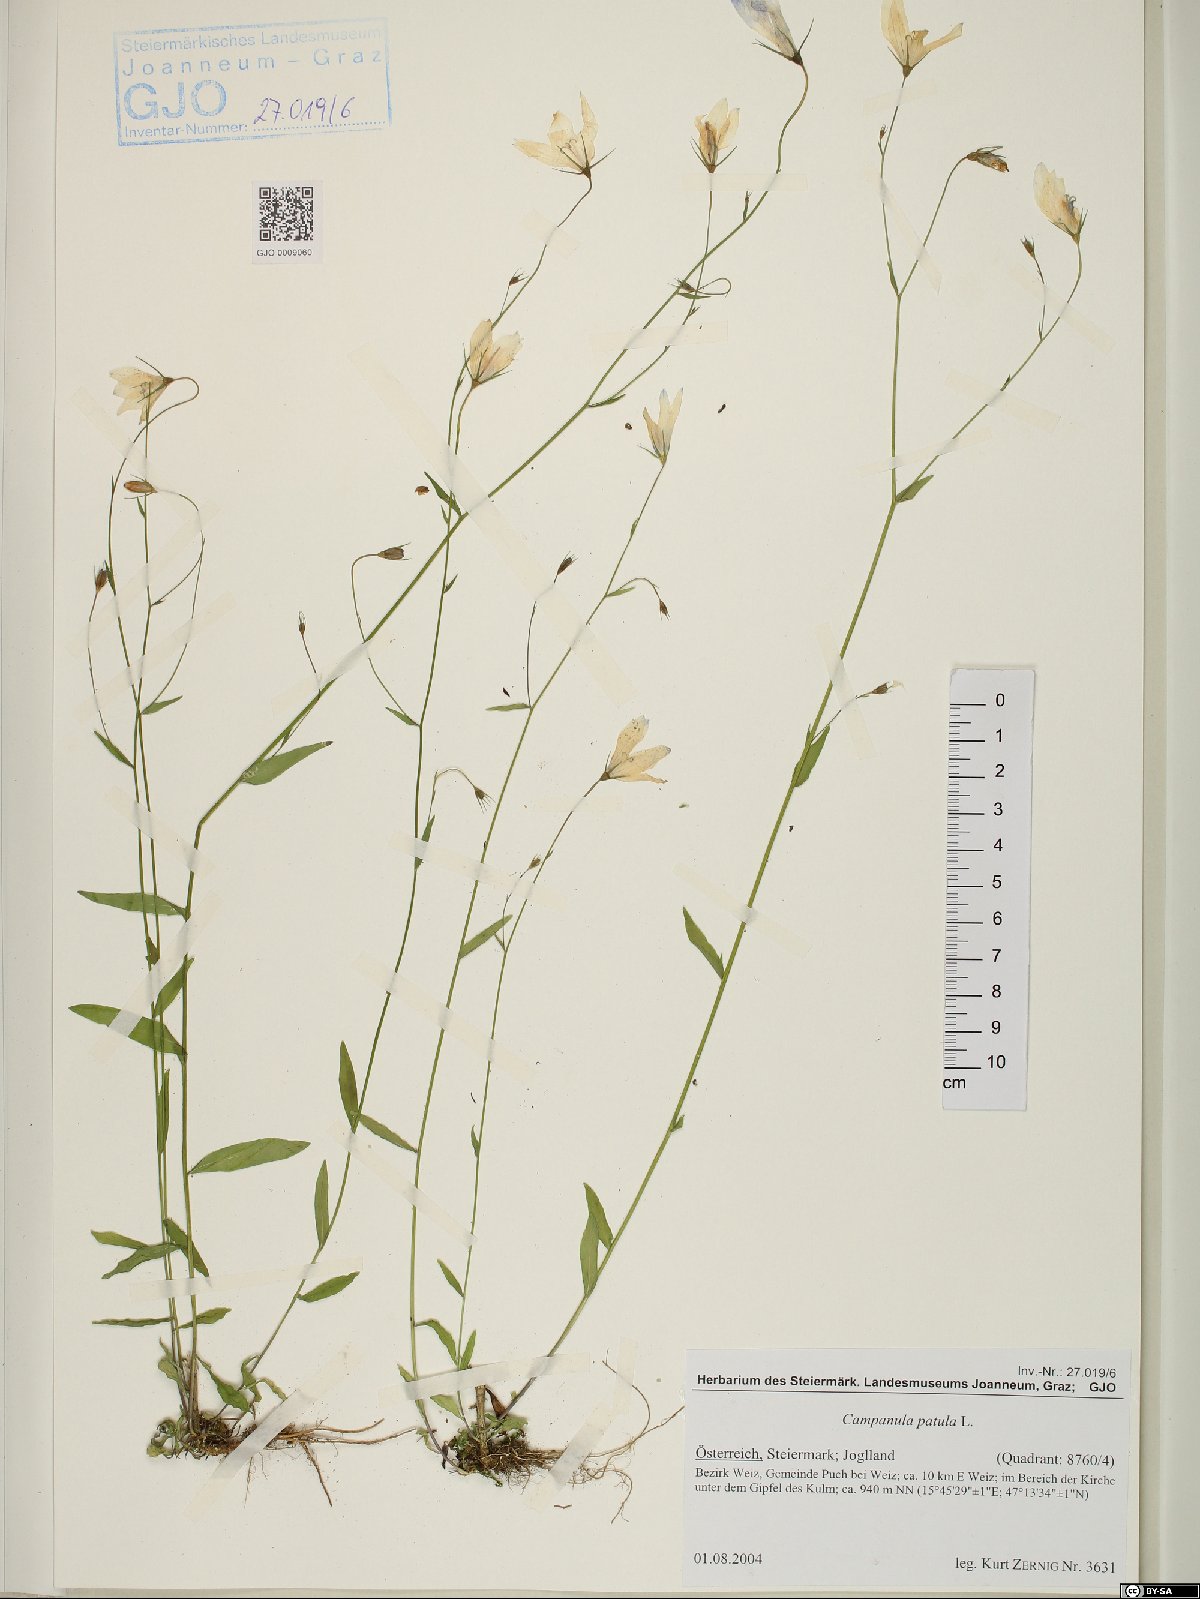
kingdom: Plantae
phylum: Tracheophyta
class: Magnoliopsida
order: Asterales
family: Campanulaceae
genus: Campanula
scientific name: Campanula patula
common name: Spreading bellflower
